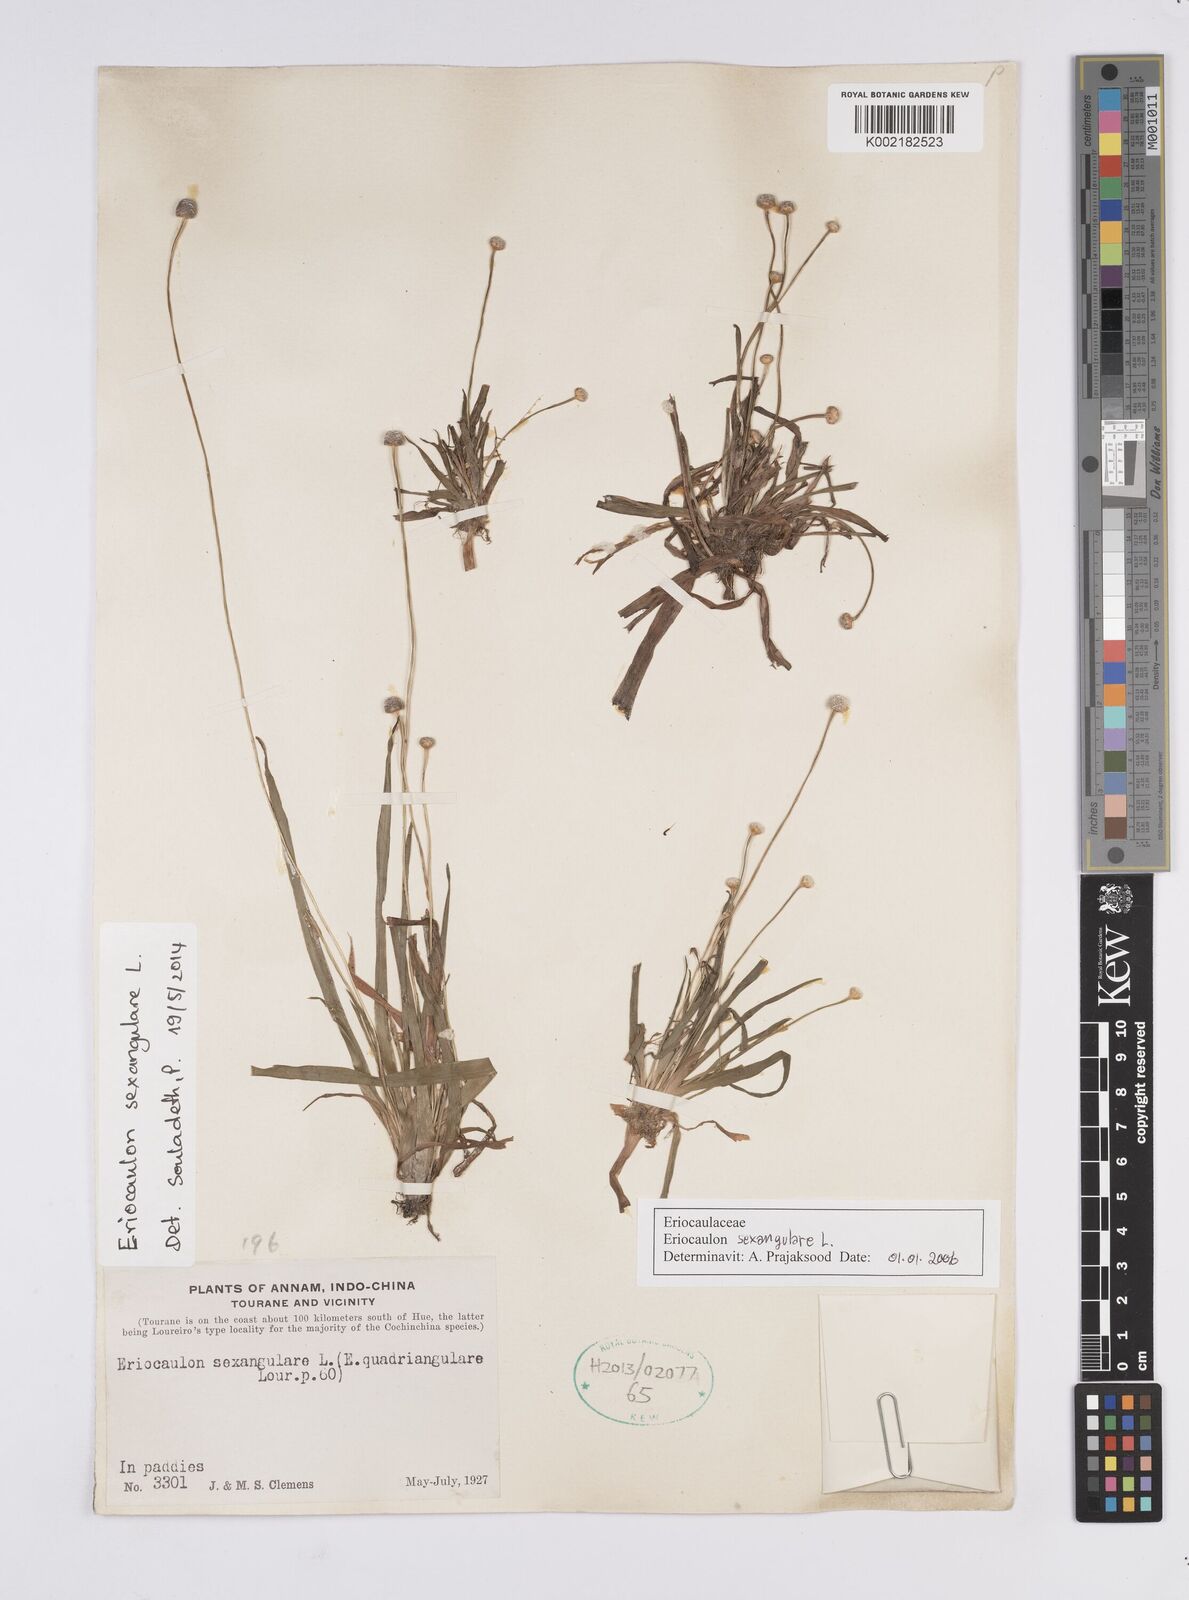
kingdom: Plantae
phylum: Tracheophyta
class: Liliopsida
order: Poales
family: Eriocaulaceae
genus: Eriocaulon
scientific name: Eriocaulon sexangulare
